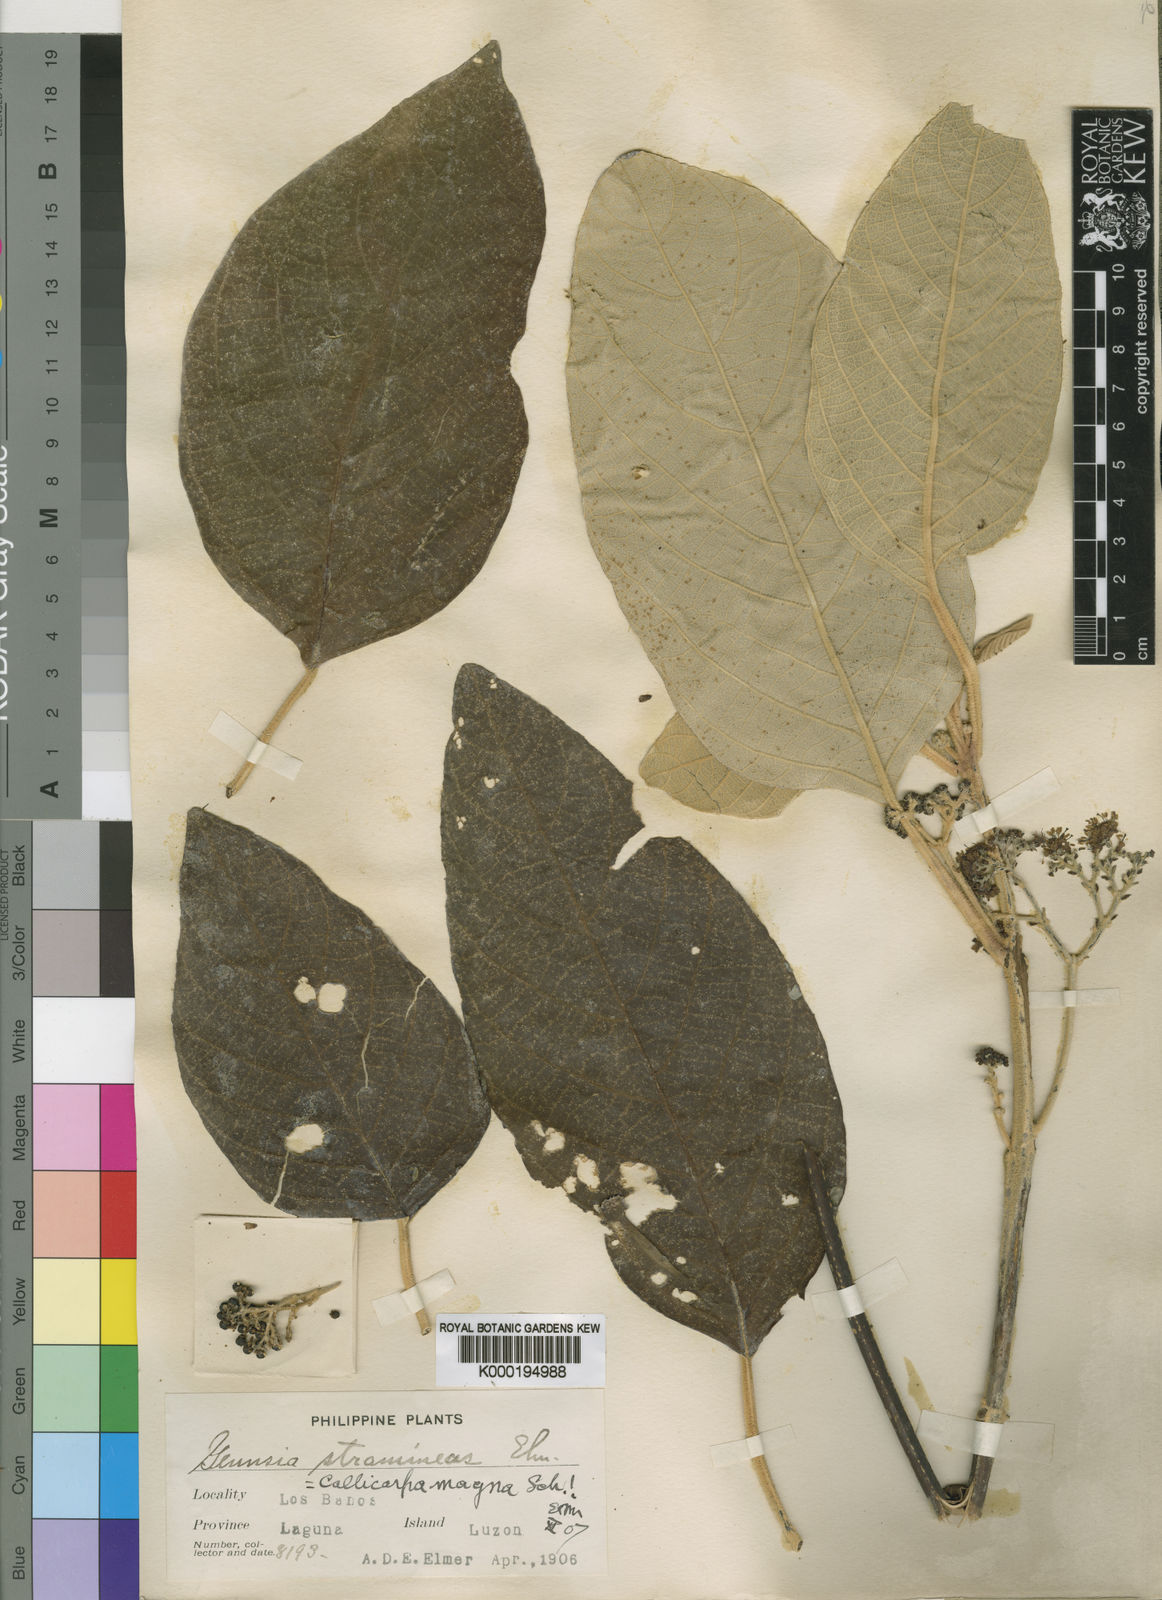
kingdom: Plantae
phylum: Tracheophyta
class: Magnoliopsida
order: Lamiales
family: Lamiaceae
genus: Callicarpa
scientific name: Callicarpa
